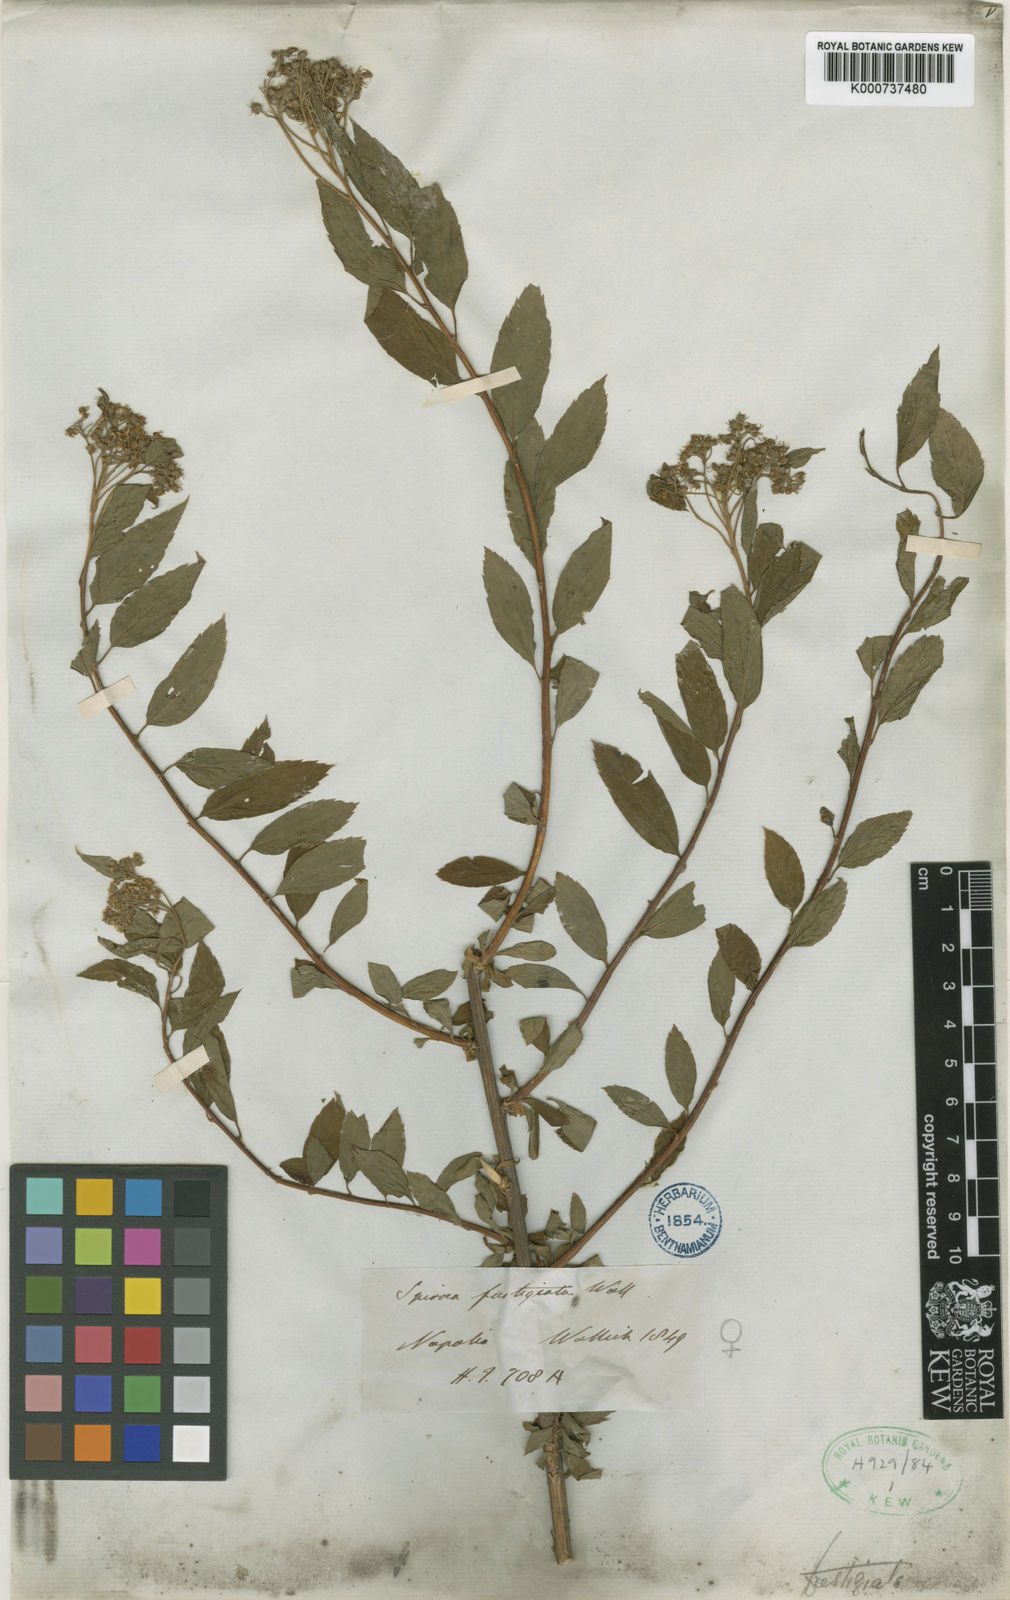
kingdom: Plantae
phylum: Tracheophyta
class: Magnoliopsida
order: Rosales
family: Rosaceae
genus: Spiraea
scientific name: Spiraea
